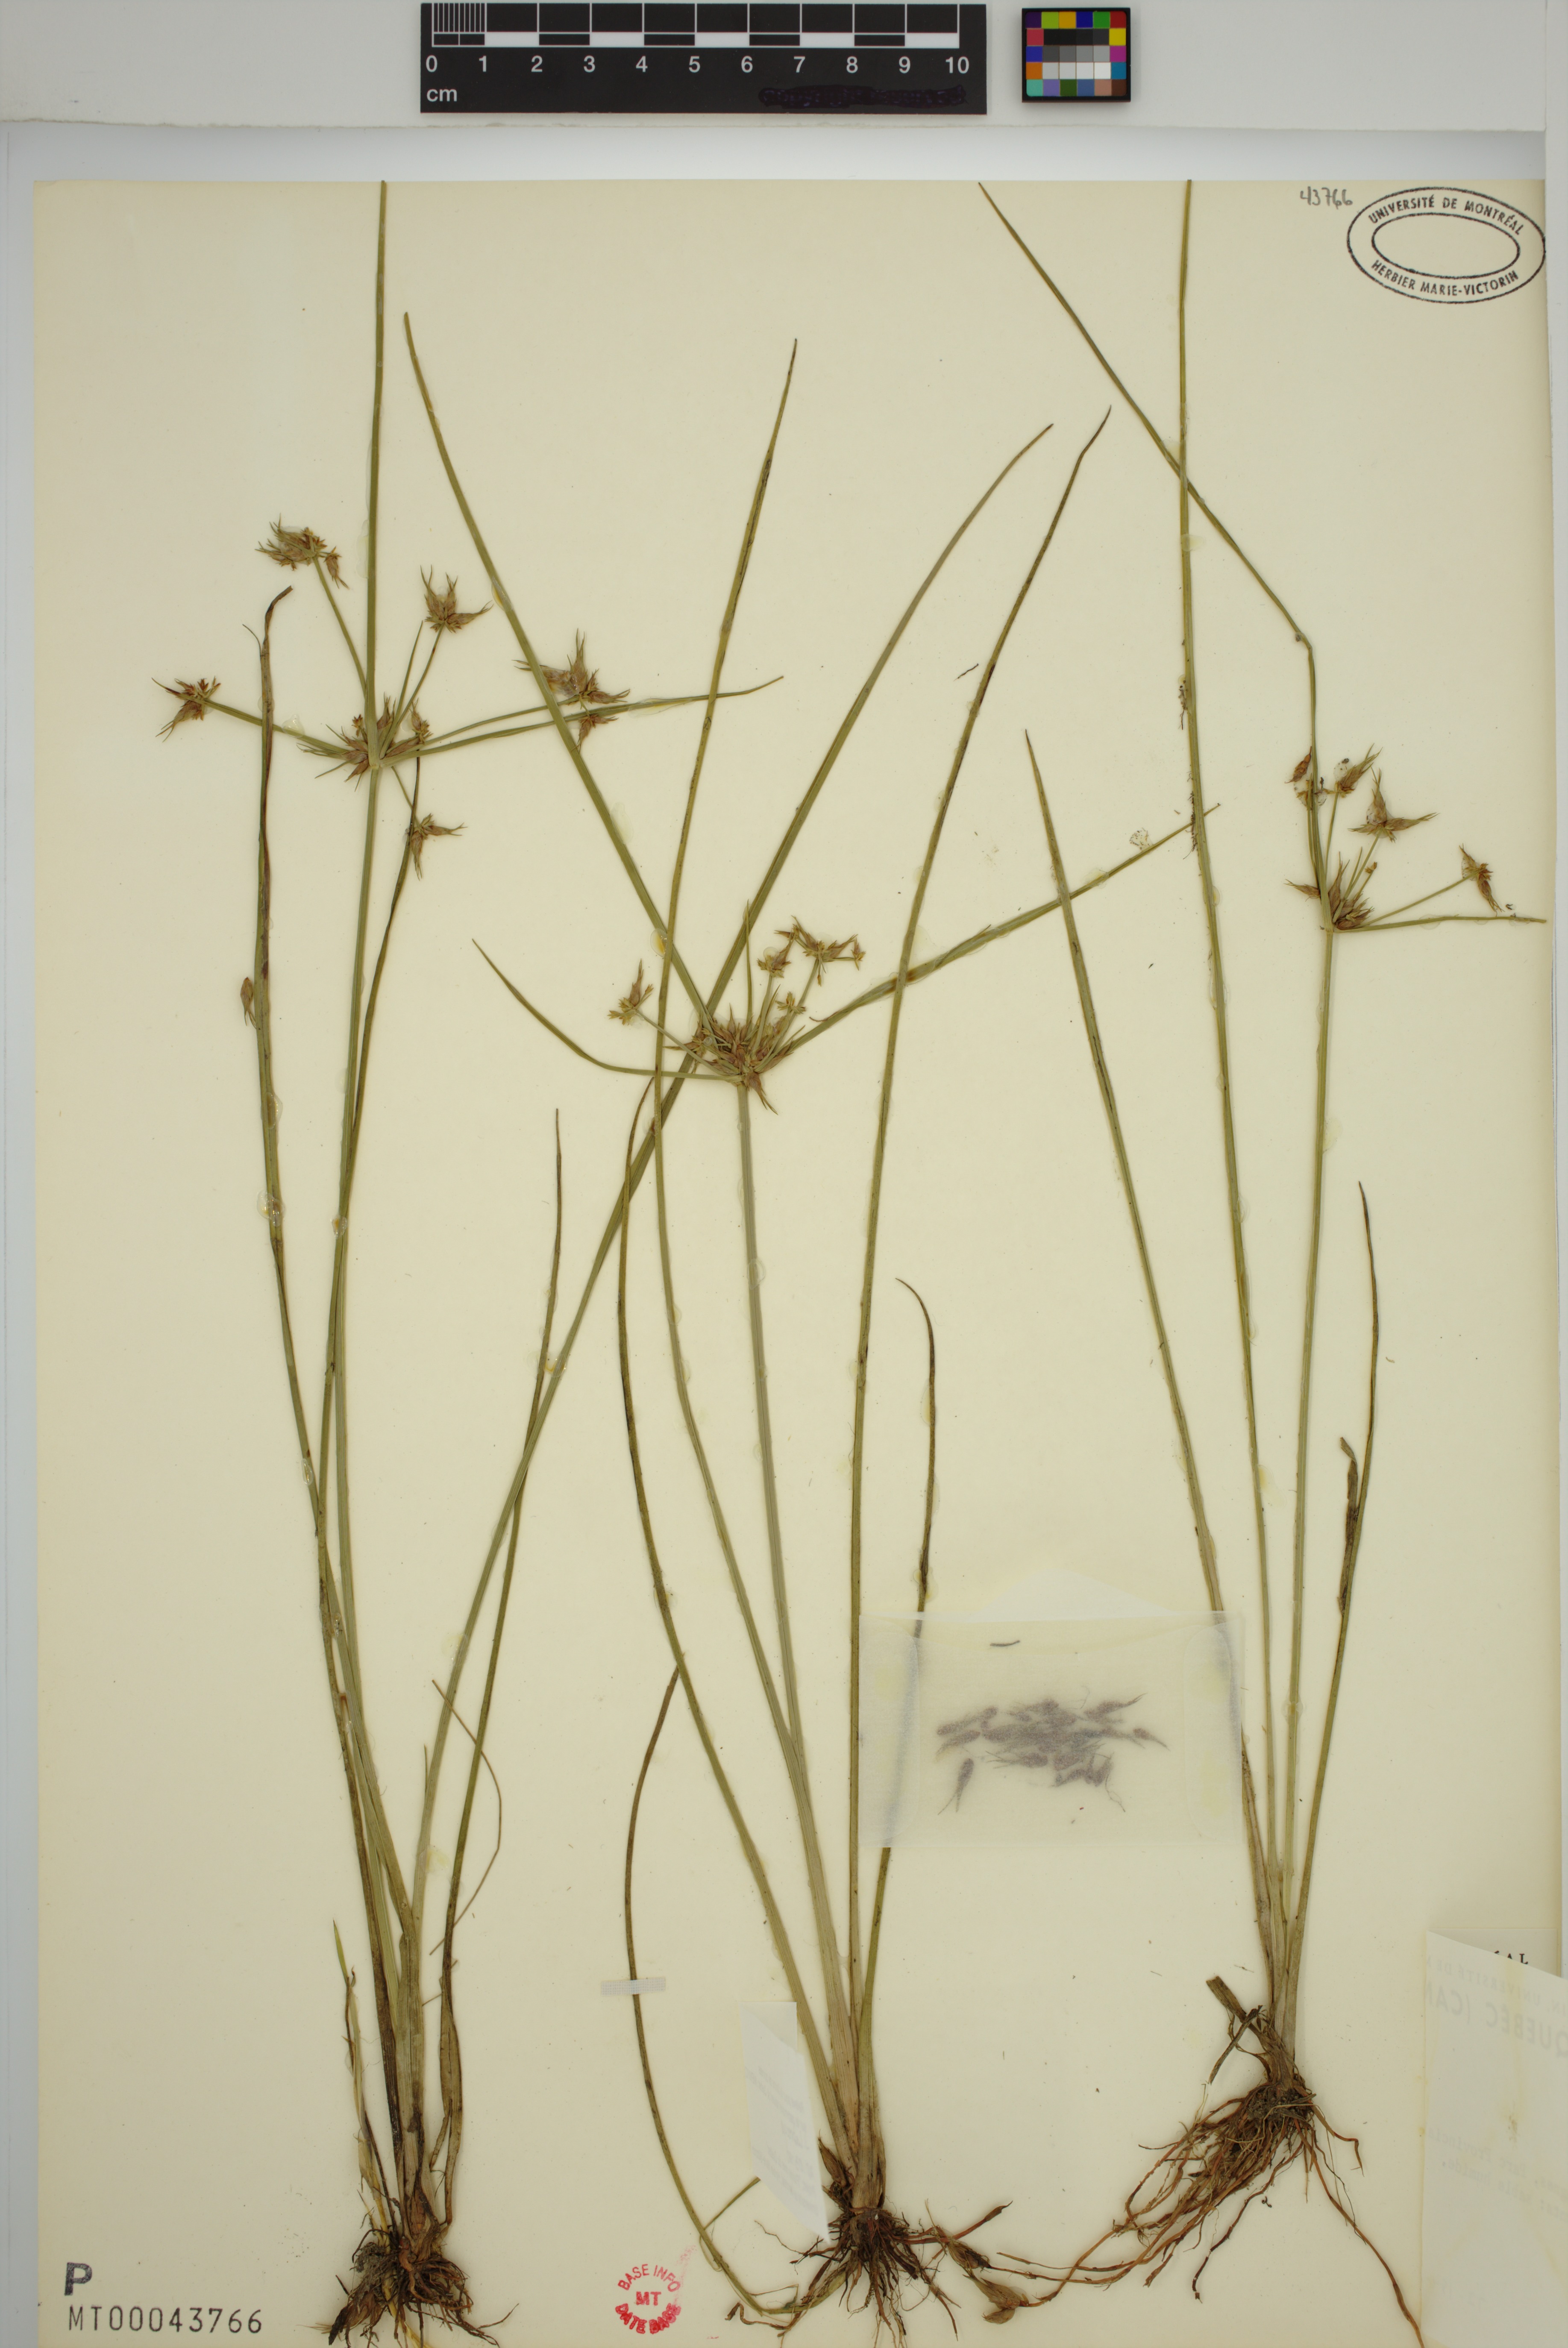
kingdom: Plantae
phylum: Tracheophyta
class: Liliopsida
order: Poales
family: Cyperaceae
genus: Cyperus
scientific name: Cyperus dentatus
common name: Dentate umbrella sedge
